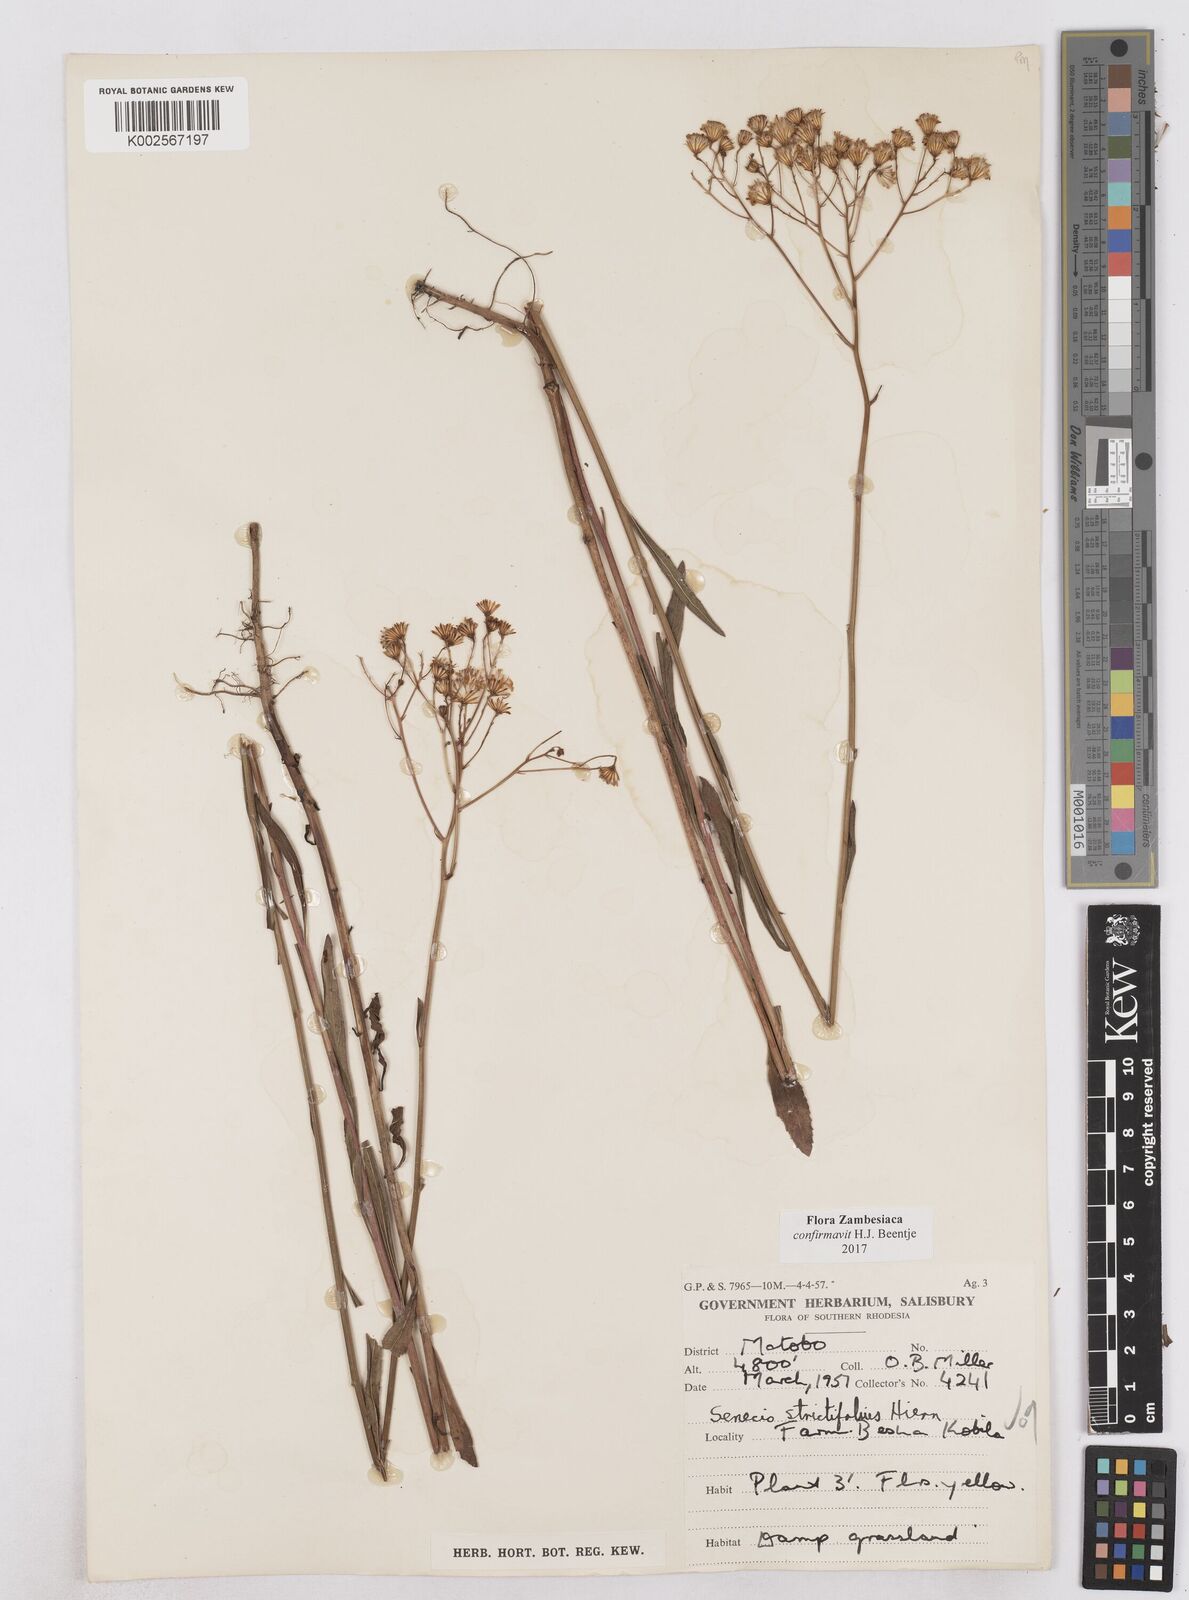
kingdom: Plantae
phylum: Tracheophyta
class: Magnoliopsida
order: Asterales
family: Asteraceae
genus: Senecio
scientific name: Senecio strictifolius
